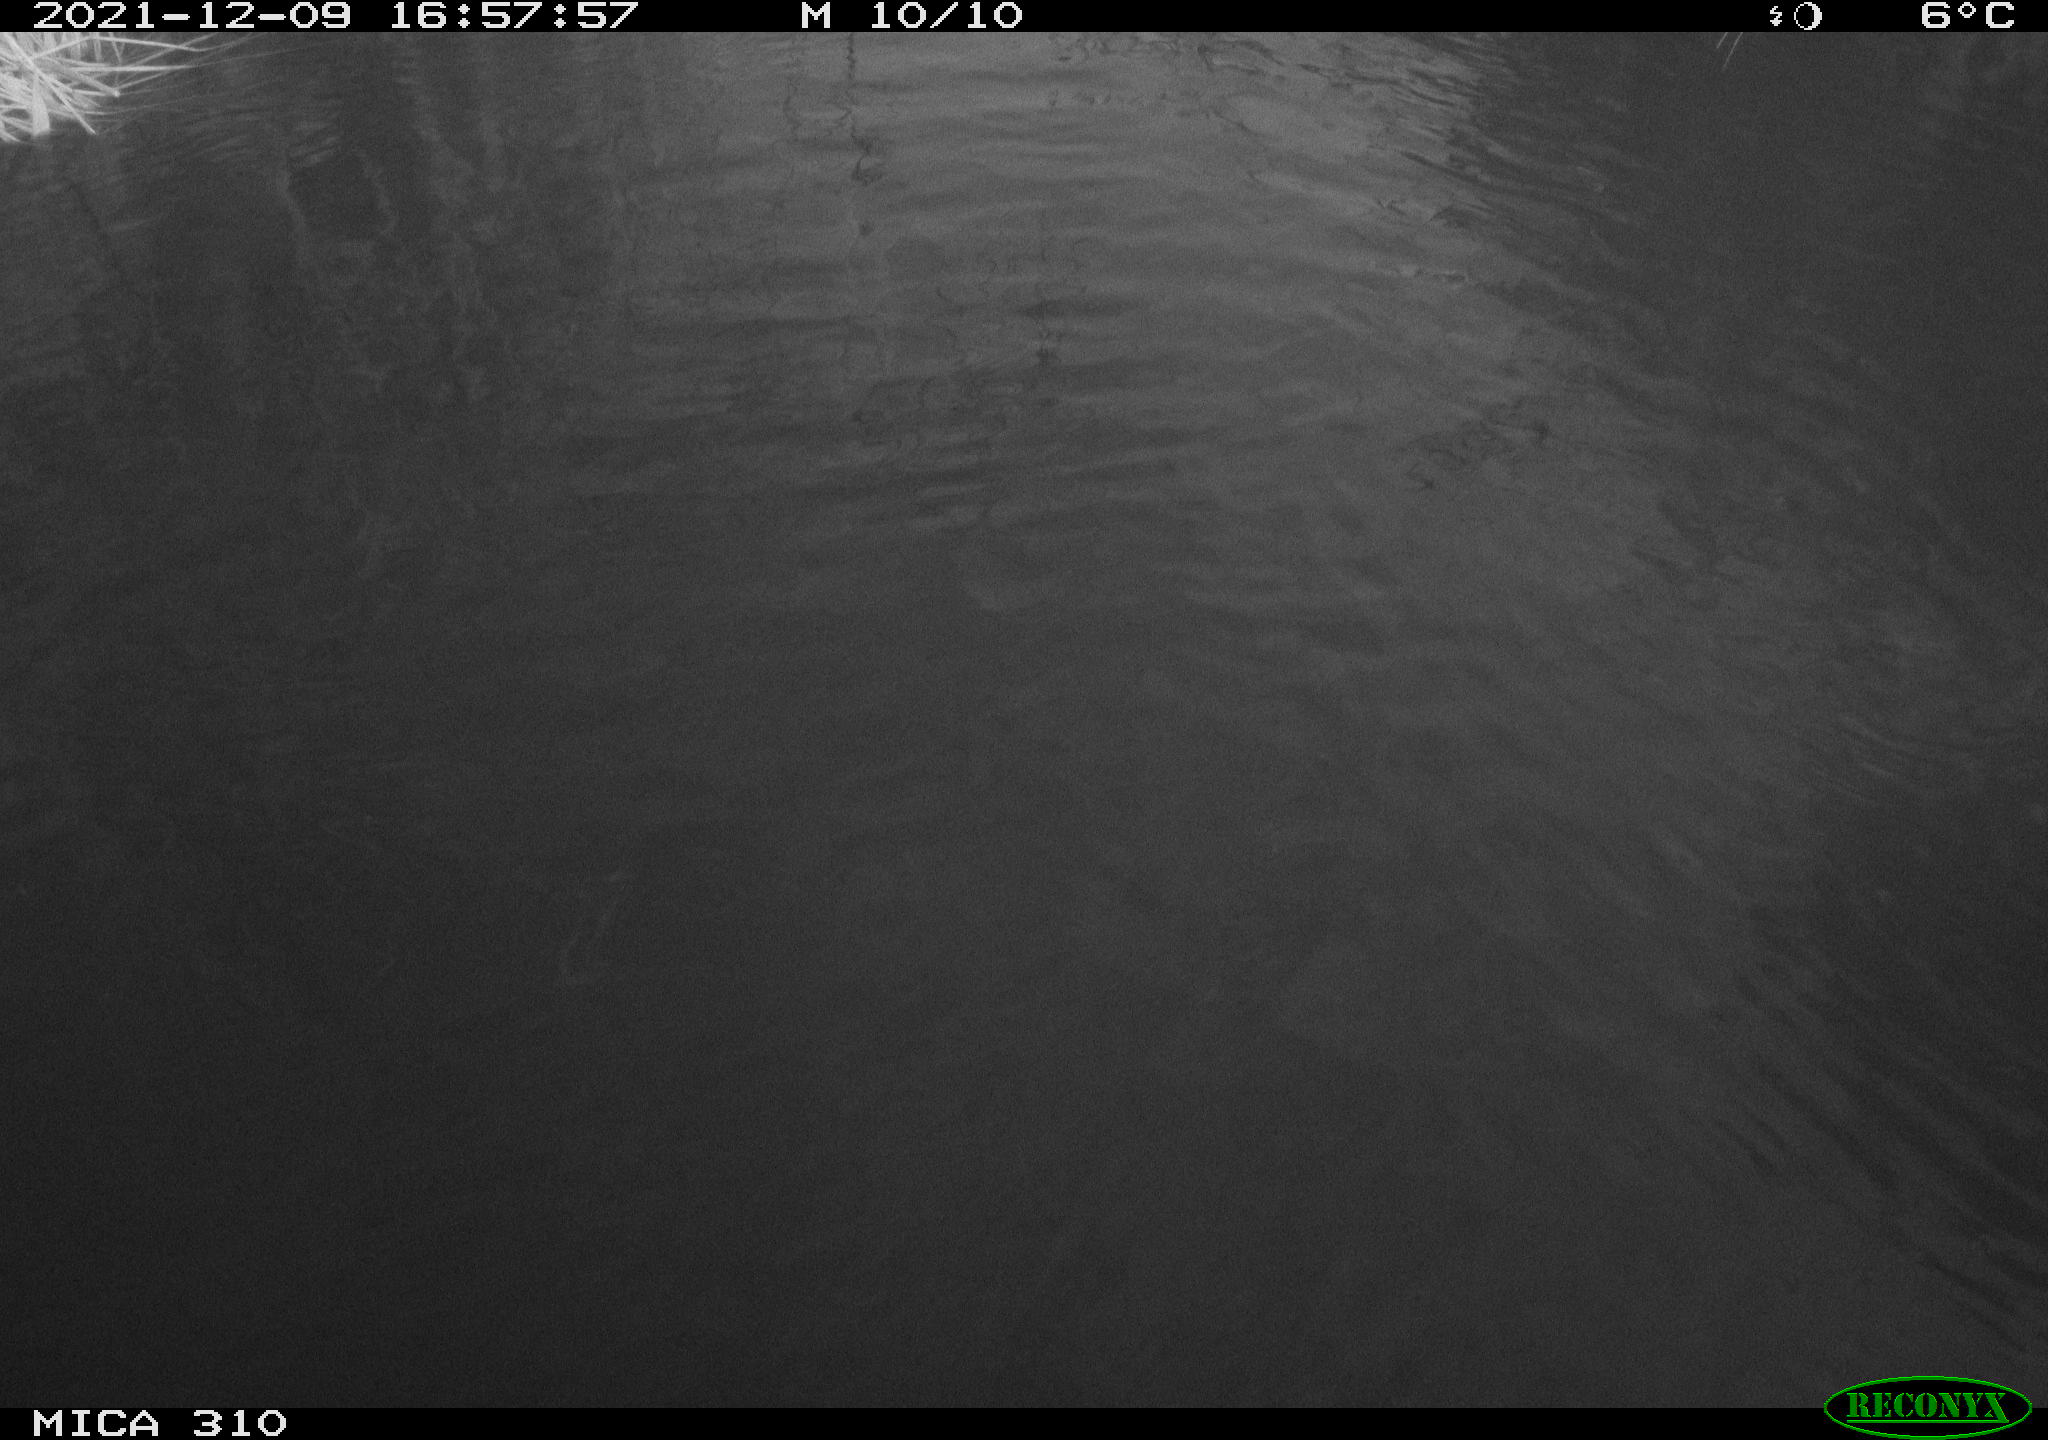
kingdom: Animalia
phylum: Chordata
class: Mammalia
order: Rodentia
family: Cricetidae
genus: Ondatra
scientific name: Ondatra zibethicus
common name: Muskrat
